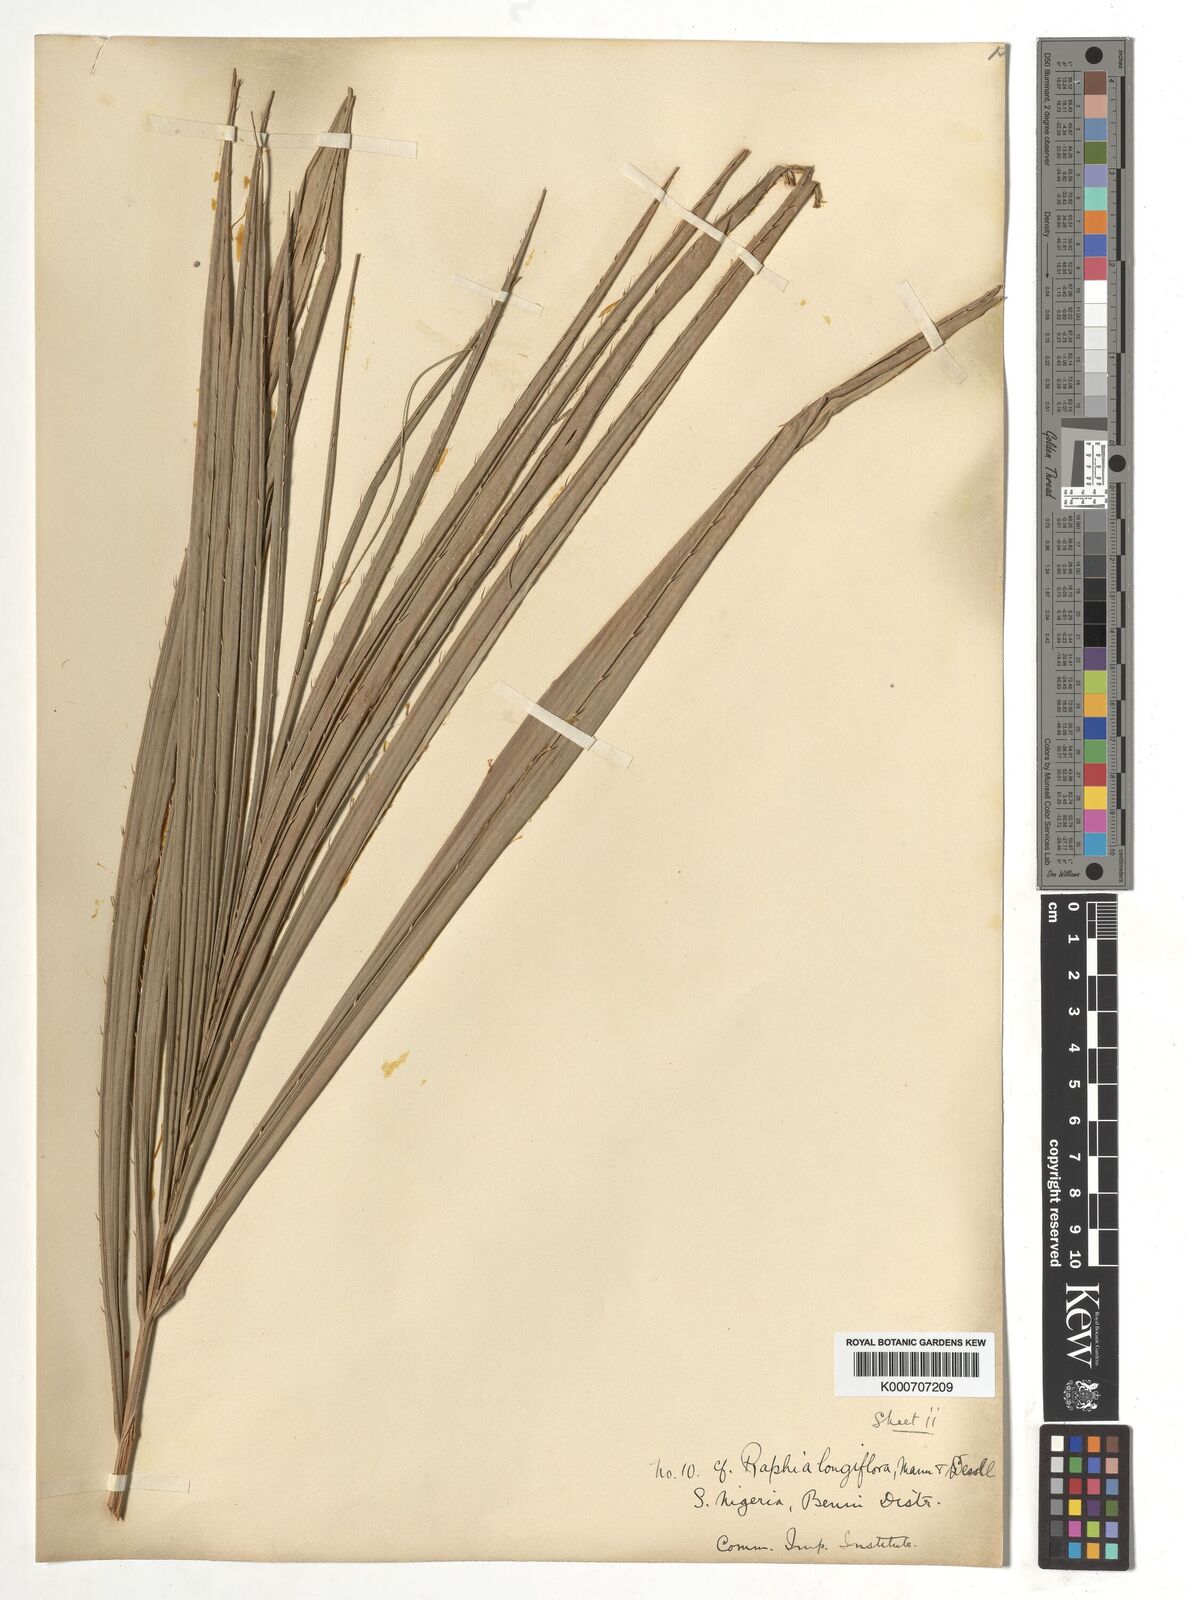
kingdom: Plantae
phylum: Tracheophyta
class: Liliopsida
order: Arecales
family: Arecaceae
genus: Raphia
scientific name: Raphia
